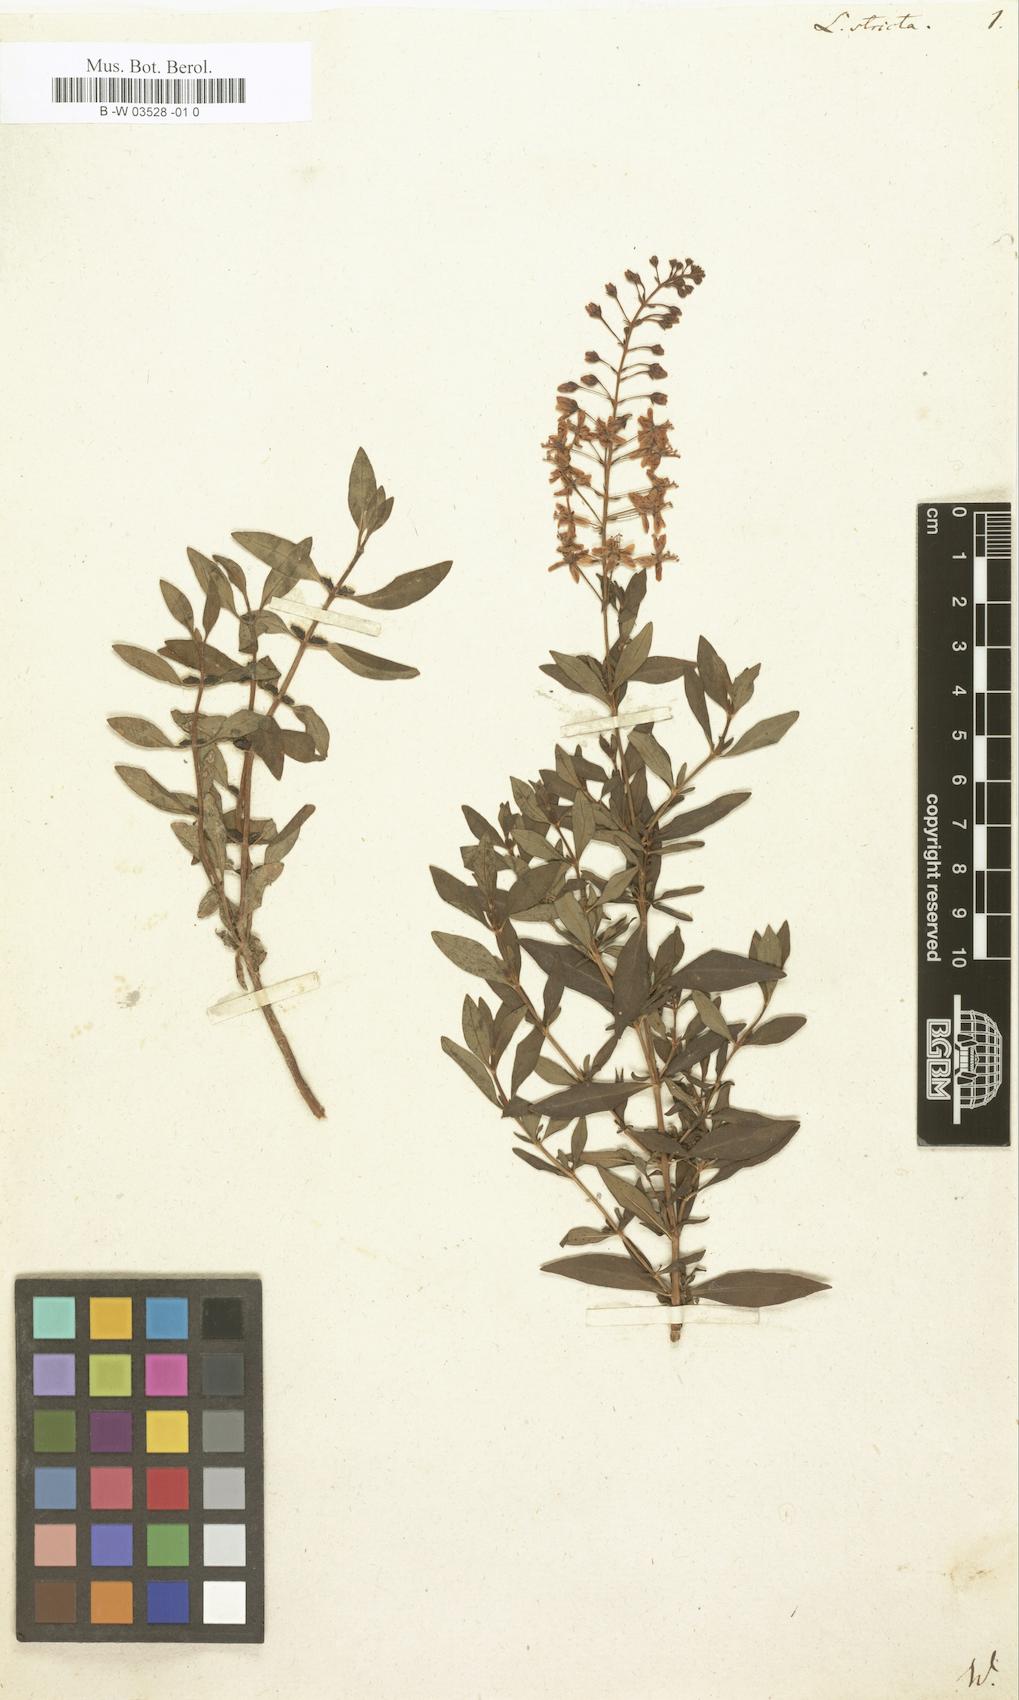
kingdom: Plantae
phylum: Tracheophyta
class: Magnoliopsida
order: Ericales
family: Primulaceae
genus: Lysimachia
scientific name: Lysimachia terrestris
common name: Lake loosestrife
